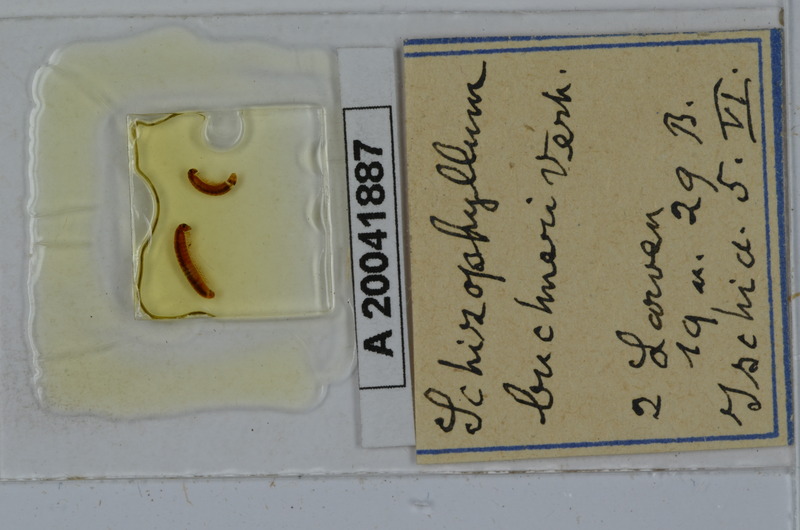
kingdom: Animalia
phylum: Arthropoda
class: Diplopoda
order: Julida
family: Julidae
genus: Schizophyllum
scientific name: Schizophyllum buchneri
